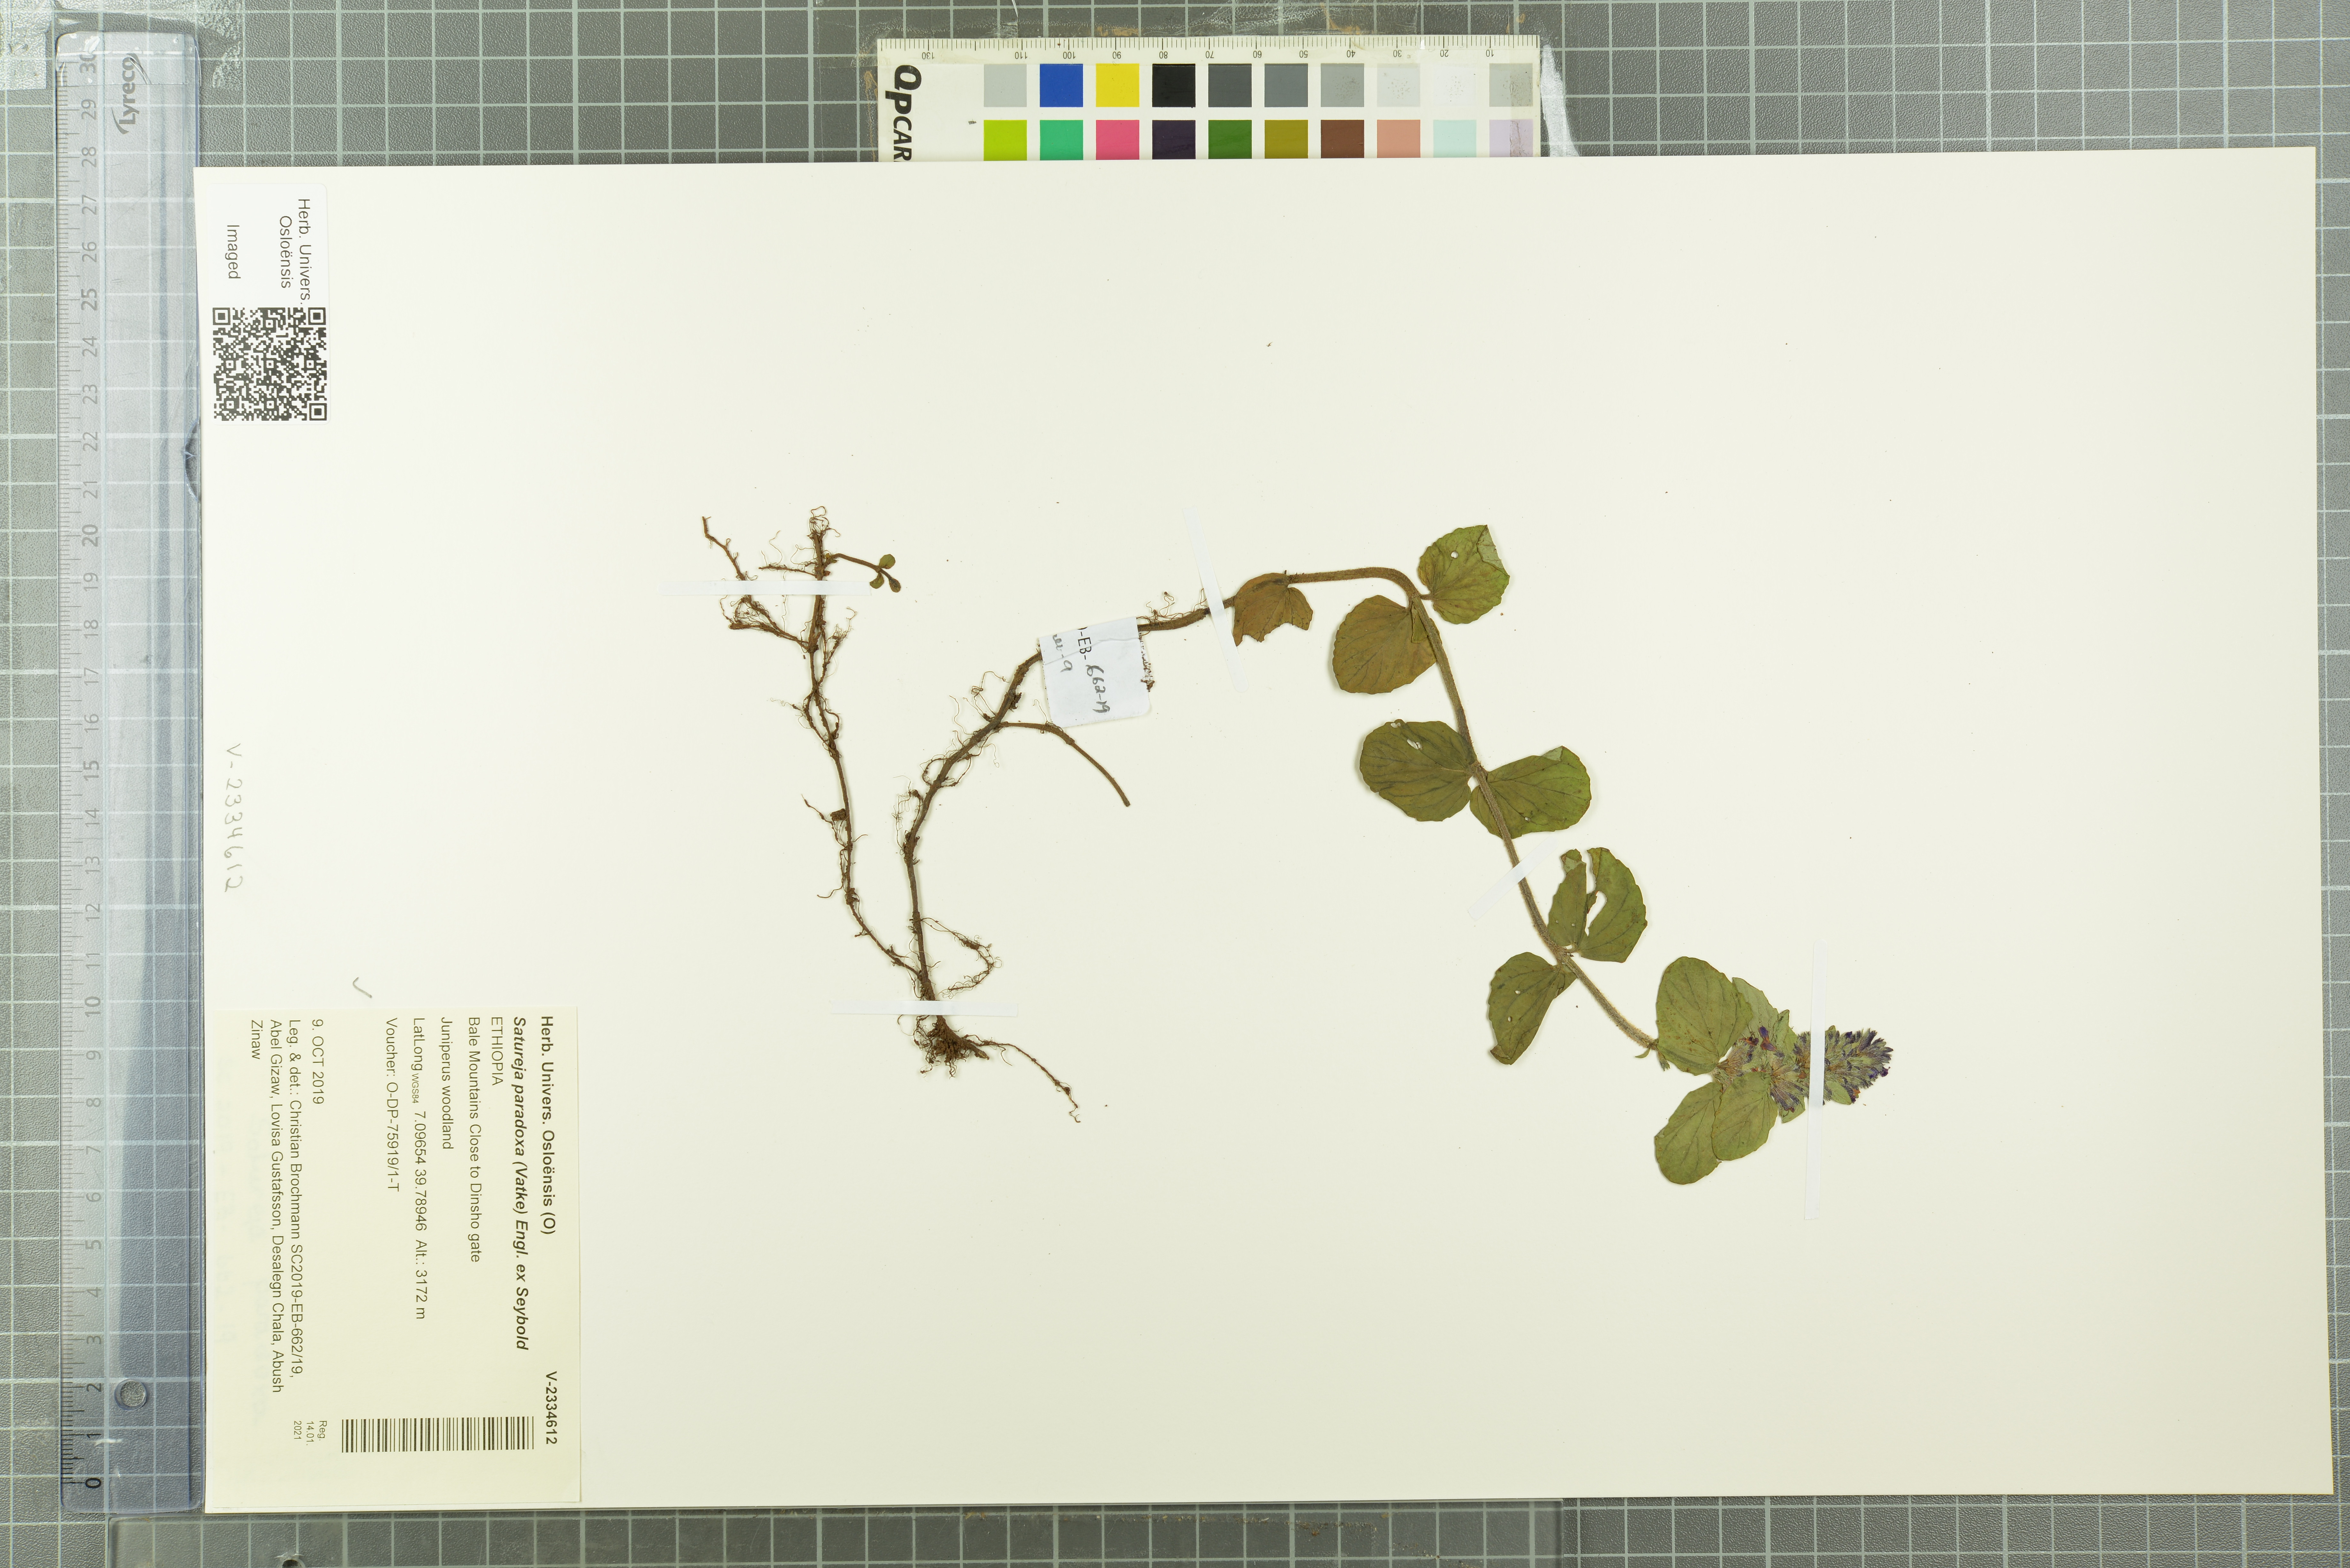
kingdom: Plantae
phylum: Tracheophyta
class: Magnoliopsida
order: Lamiales
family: Lamiaceae
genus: Clinopodium
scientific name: Clinopodium paradoxum
